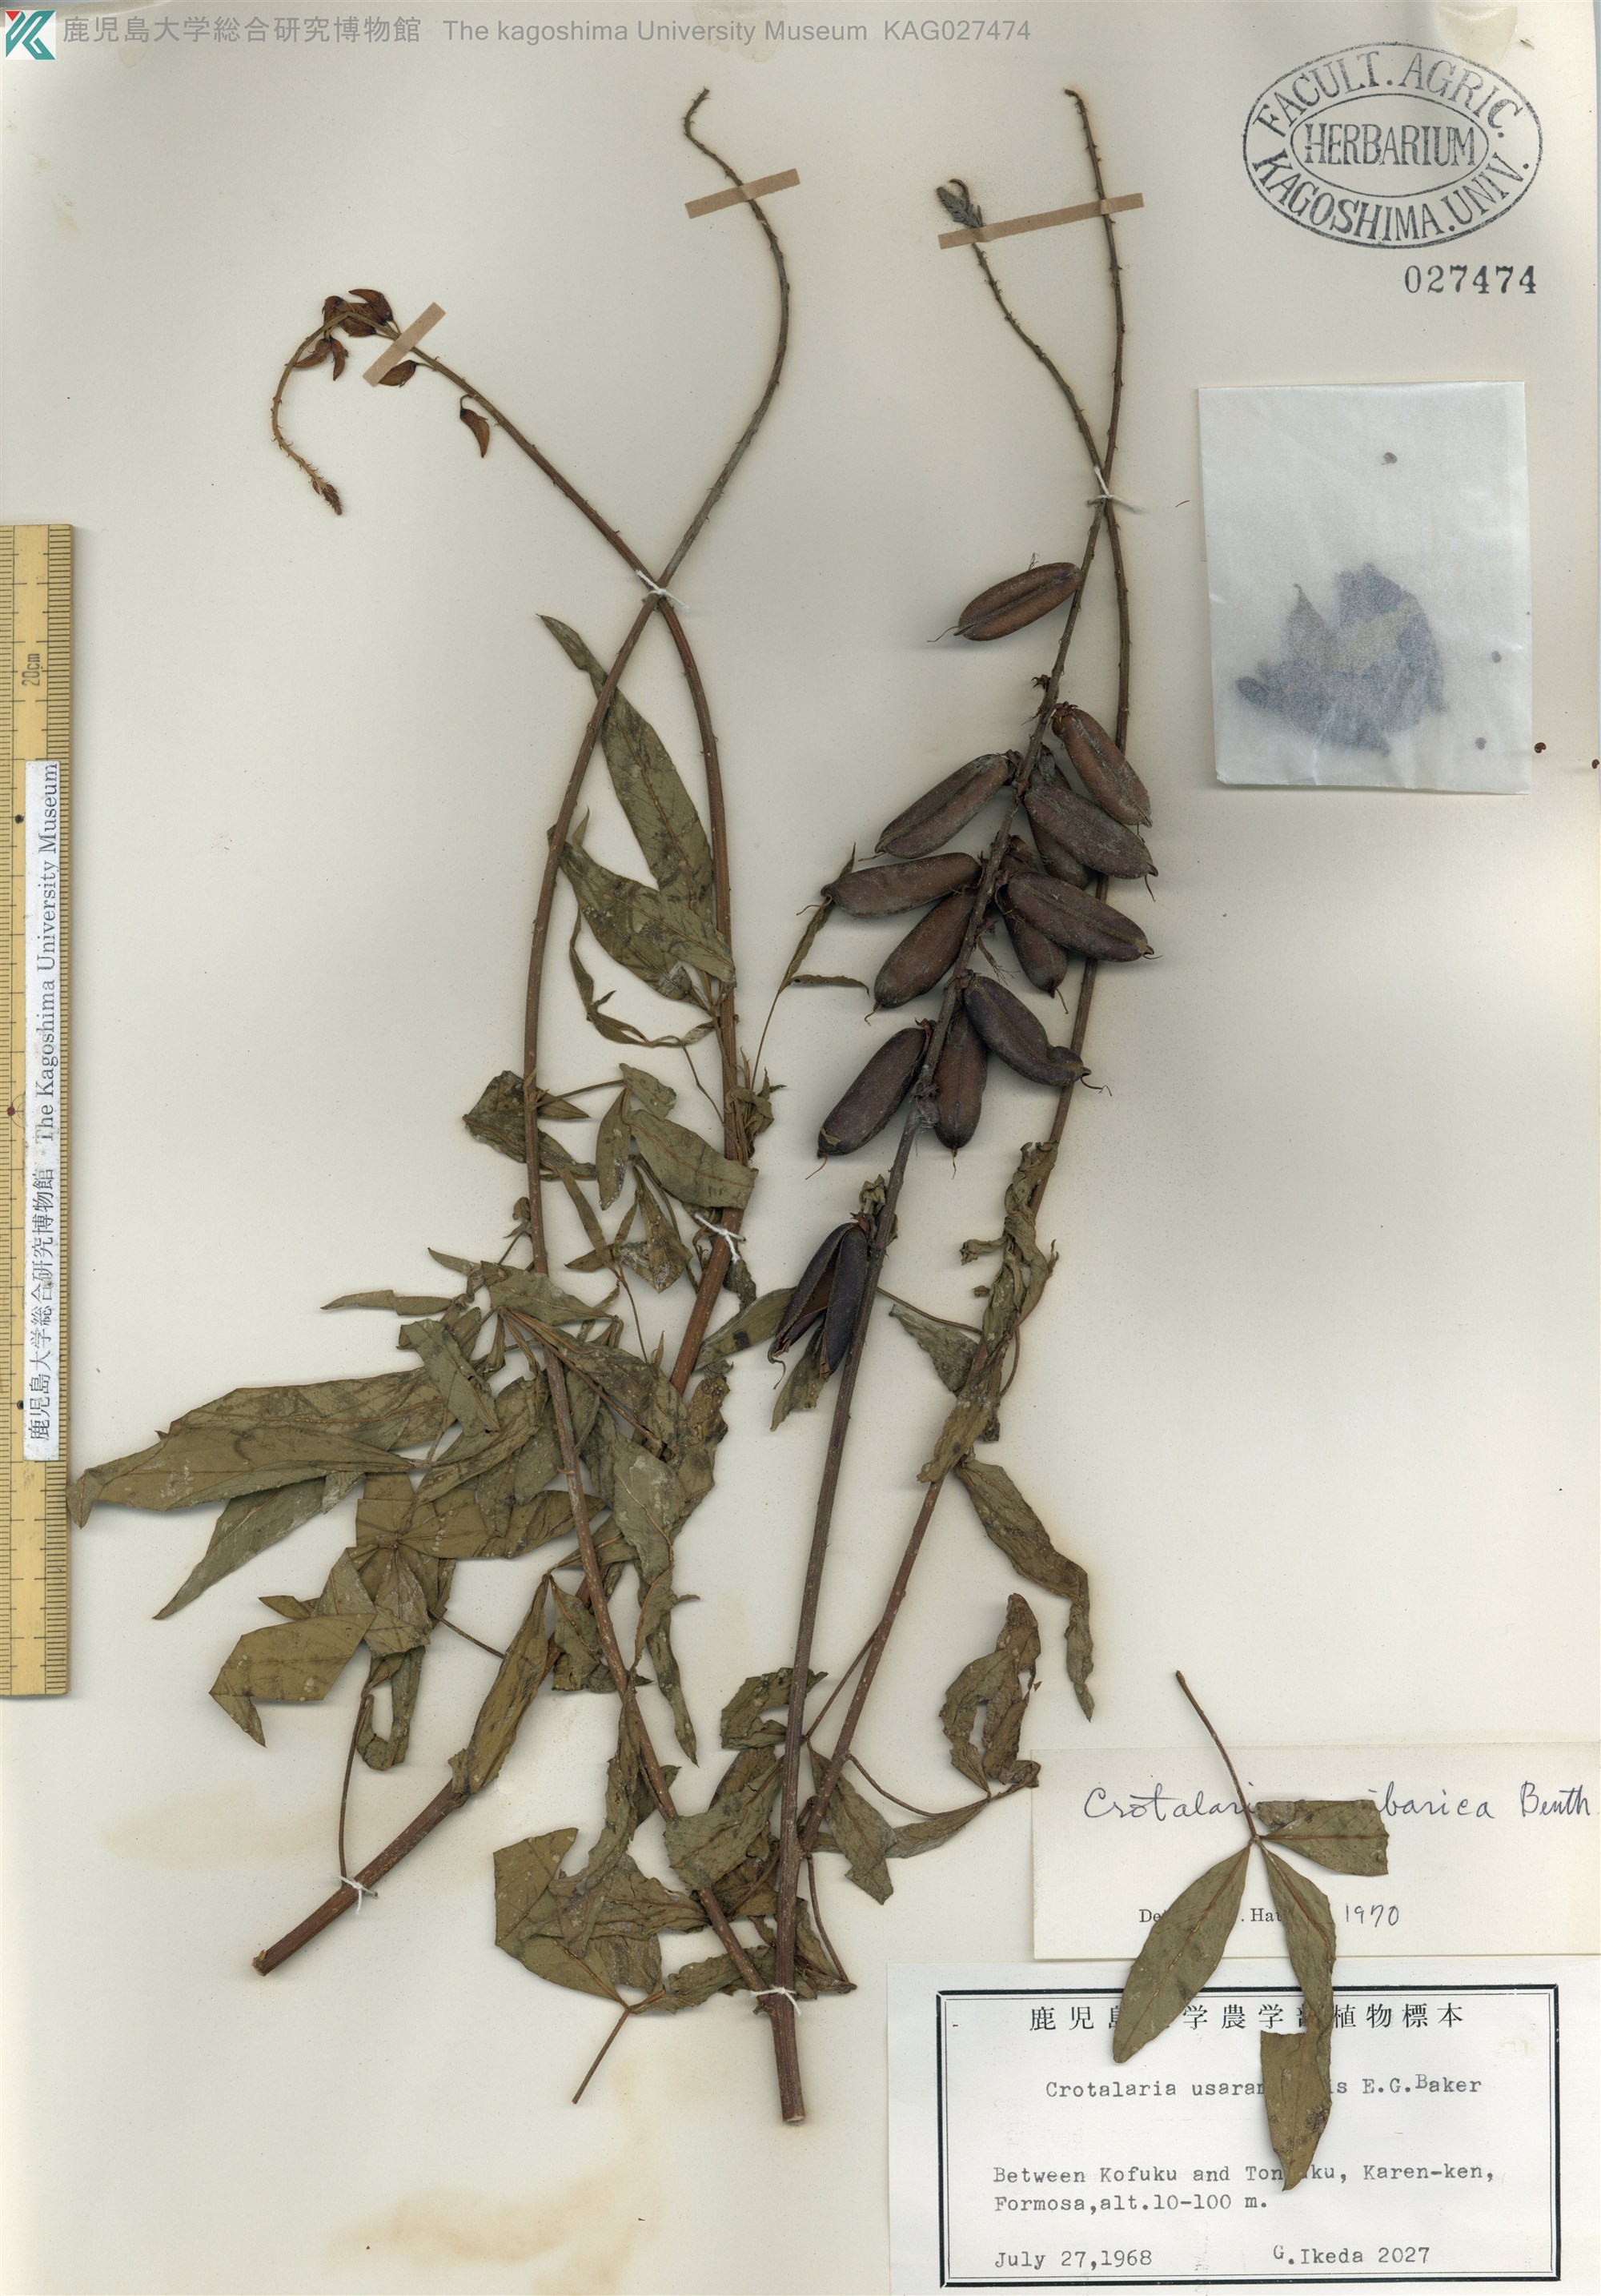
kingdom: Plantae
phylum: Tracheophyta
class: Magnoliopsida
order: Fabales
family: Fabaceae
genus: Crotalaria
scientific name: Crotalaria trichotoma
